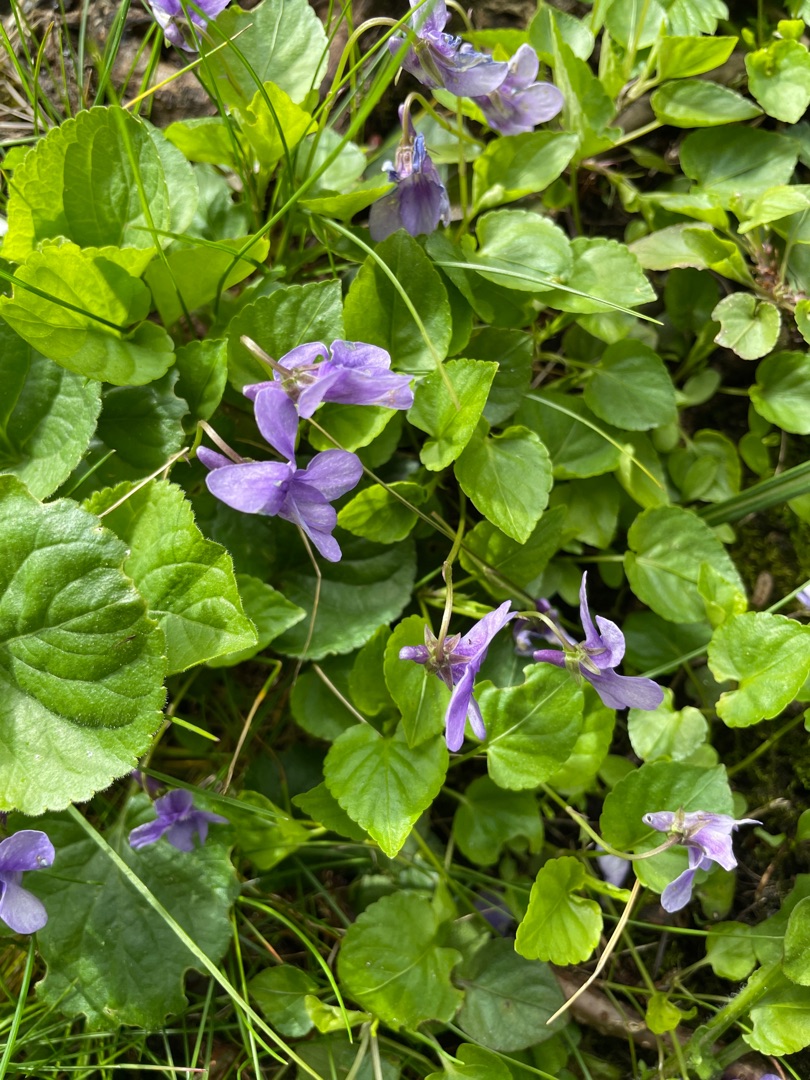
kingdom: Plantae
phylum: Tracheophyta
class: Magnoliopsida
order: Malpighiales
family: Violaceae
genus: Viola
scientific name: Viola reichenbachiana
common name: Skov-viol
